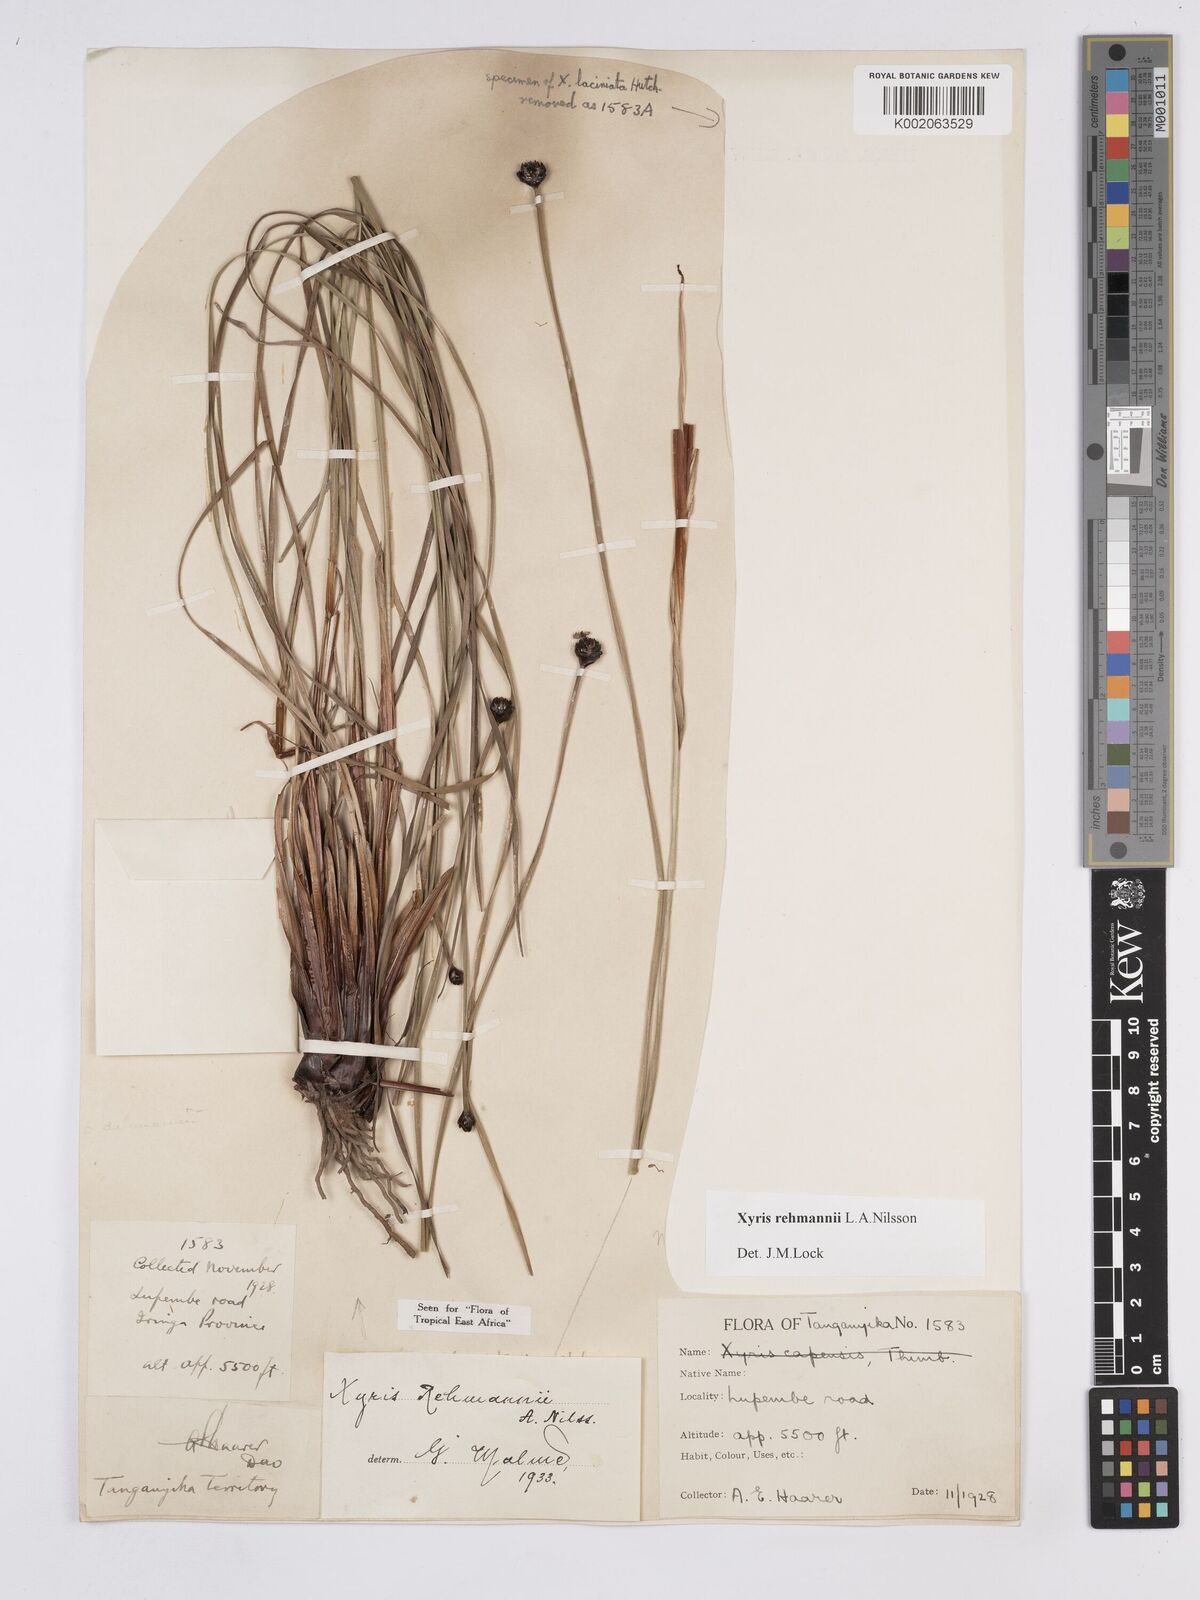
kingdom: Plantae
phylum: Tracheophyta
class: Liliopsida
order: Poales
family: Xyridaceae
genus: Xyris
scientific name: Xyris rehmannii
